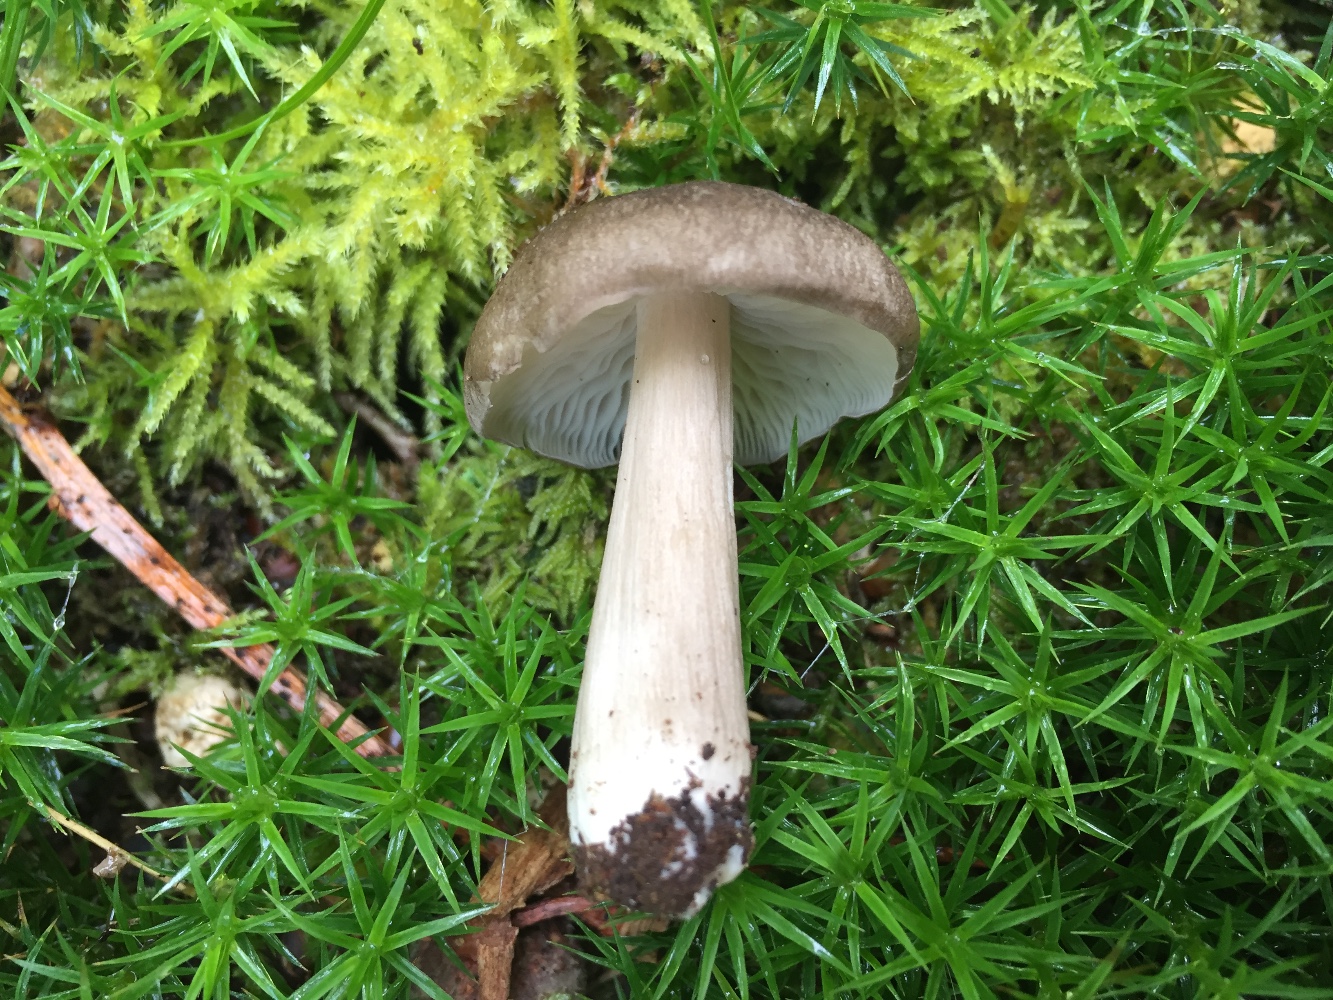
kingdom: Fungi
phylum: Basidiomycota
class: Agaricomycetes
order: Agaricales
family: Tricholomataceae
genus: Megacollybia
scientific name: Megacollybia platyphylla
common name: bredbladet væbnerhat
